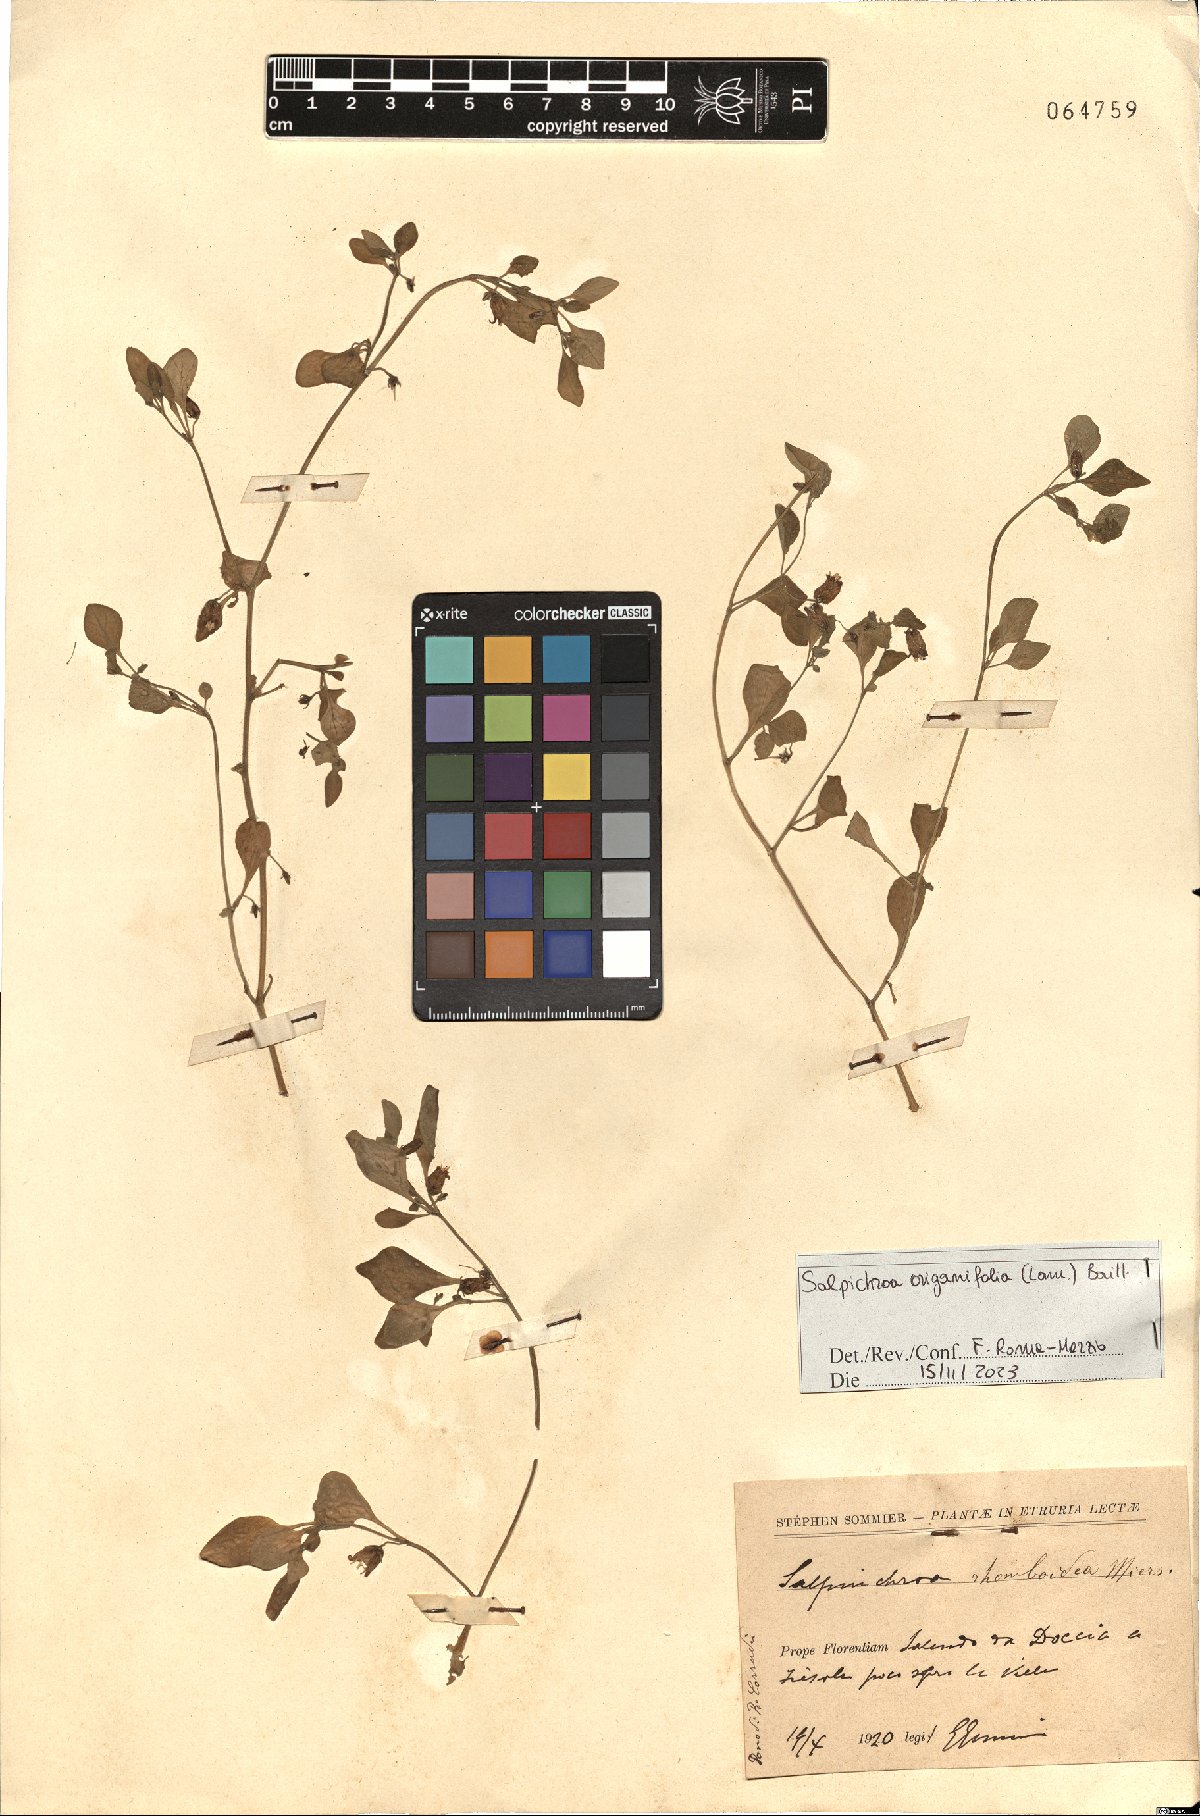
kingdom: Plantae
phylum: Tracheophyta
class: Magnoliopsida
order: Solanales
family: Solanaceae
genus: Salpichroa
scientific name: Salpichroa origanifolia
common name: Lily-of-the-valley-vine
